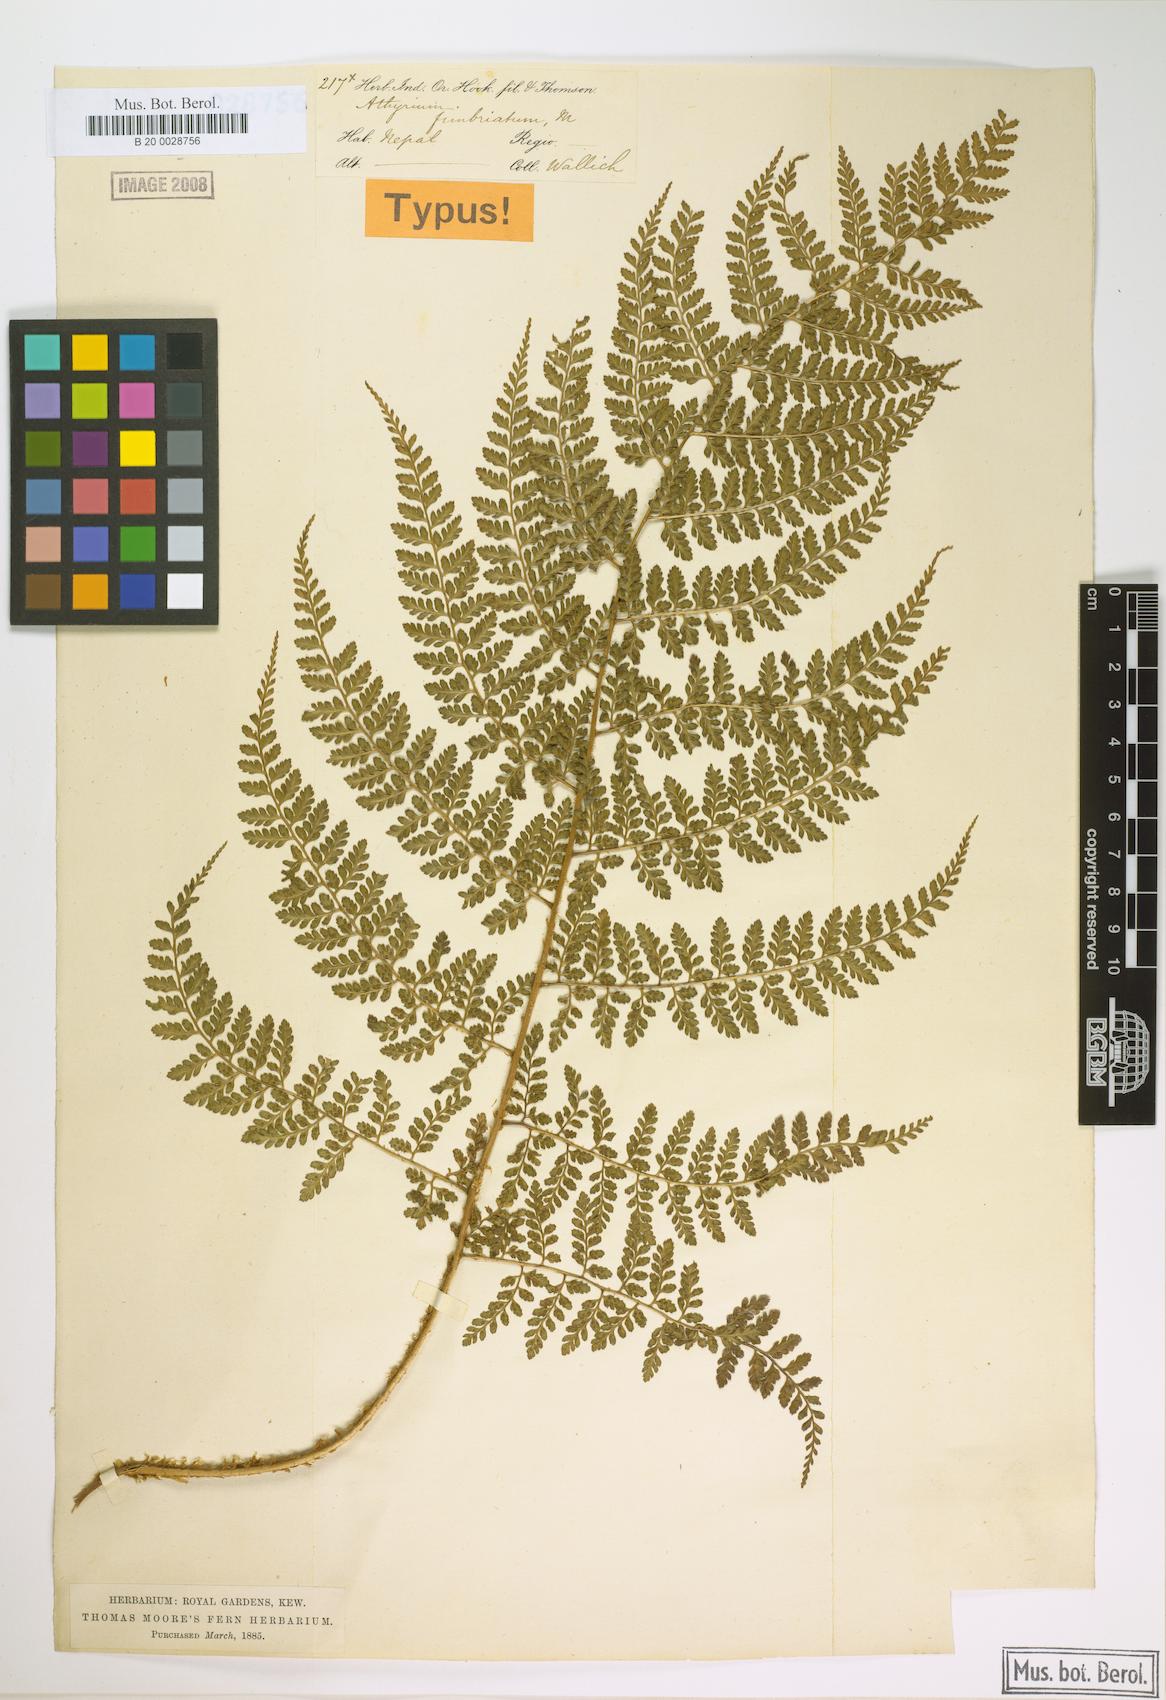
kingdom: Plantae
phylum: Tracheophyta
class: Polypodiopsida
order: Polypodiales
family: Athyriaceae
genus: Athyrium
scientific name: Athyrium fimbriatum
